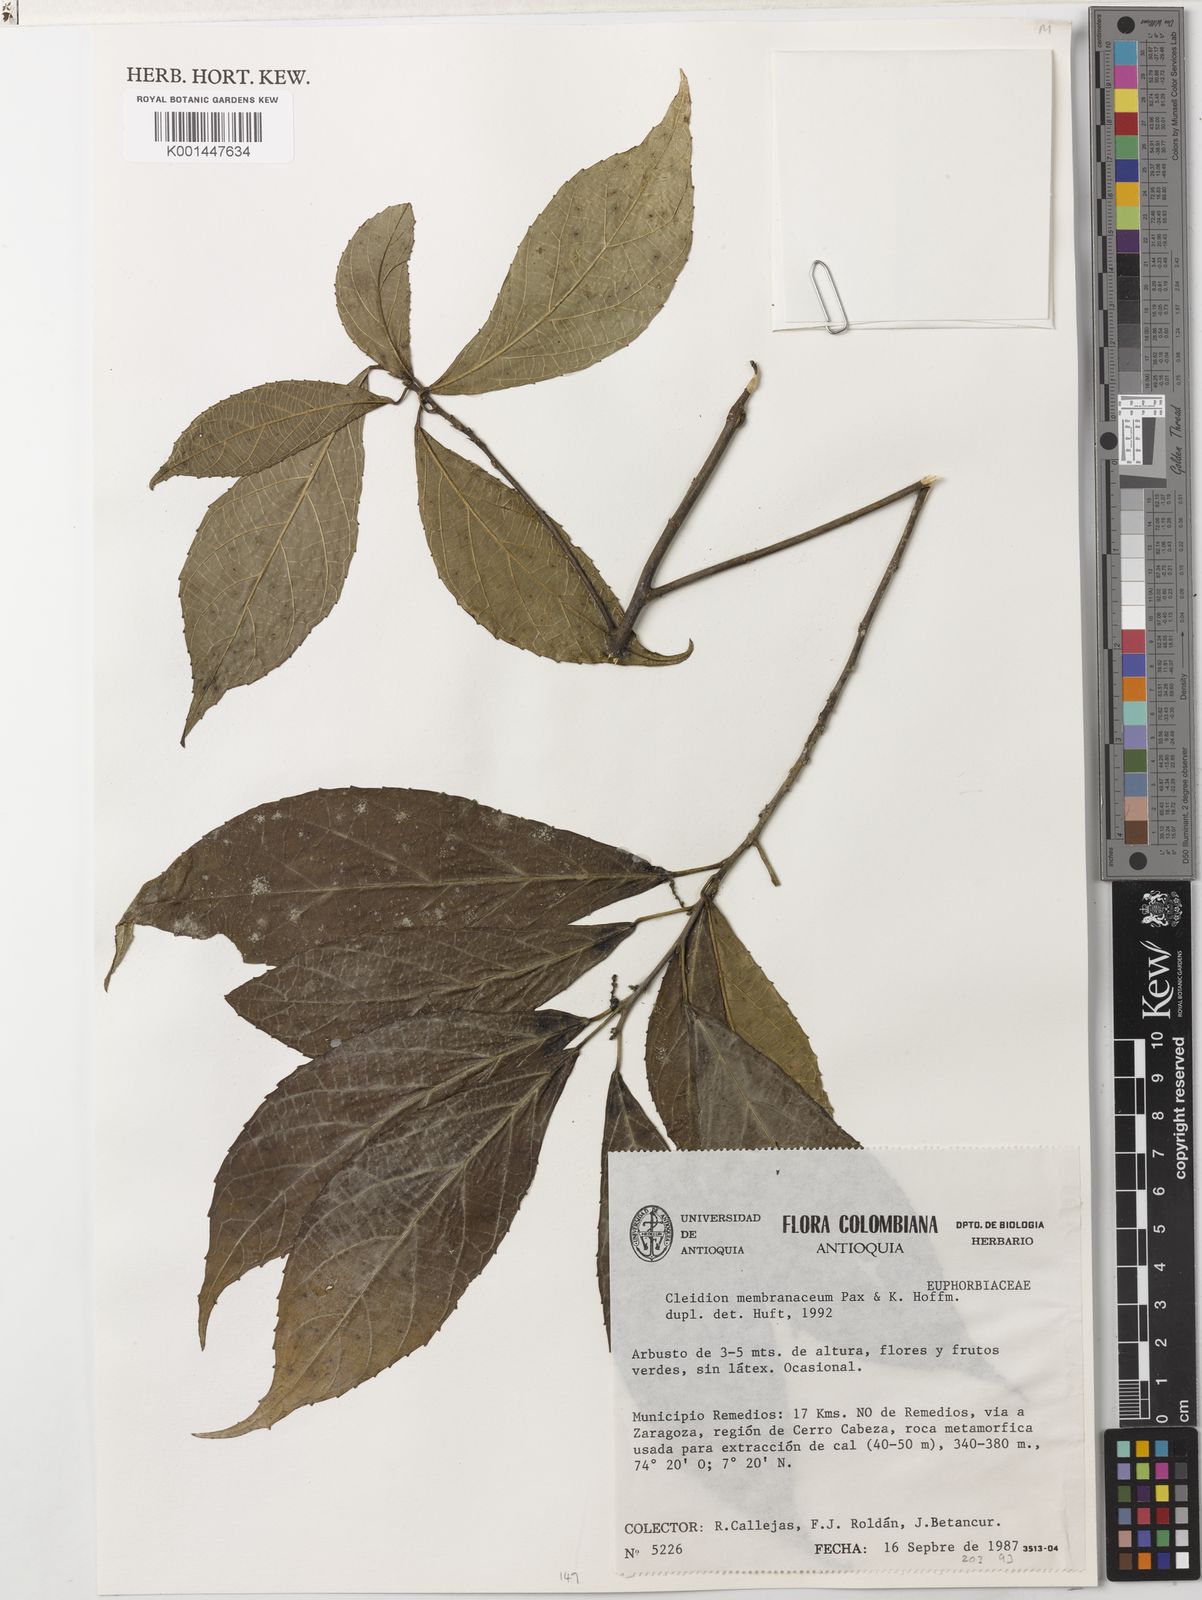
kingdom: Plantae
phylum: Tracheophyta
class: Magnoliopsida
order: Malpighiales
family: Euphorbiaceae
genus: Cleidion
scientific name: Cleidion castaneifolium
